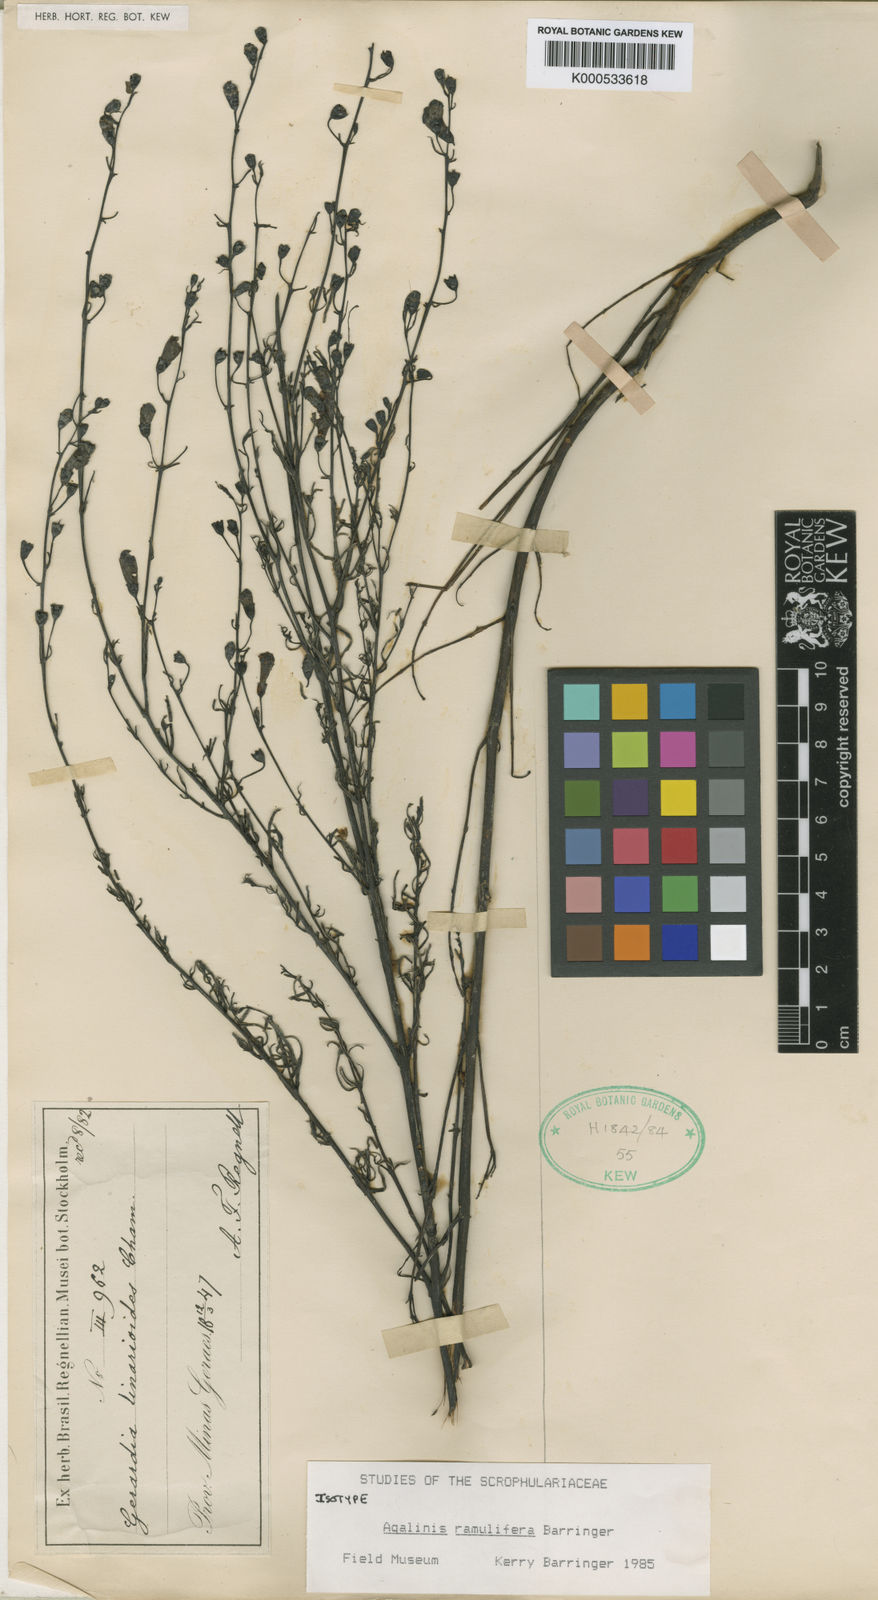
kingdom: Plantae
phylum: Tracheophyta
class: Magnoliopsida
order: Lamiales
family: Orobanchaceae
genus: Agalinis
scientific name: Agalinis ramulifera
